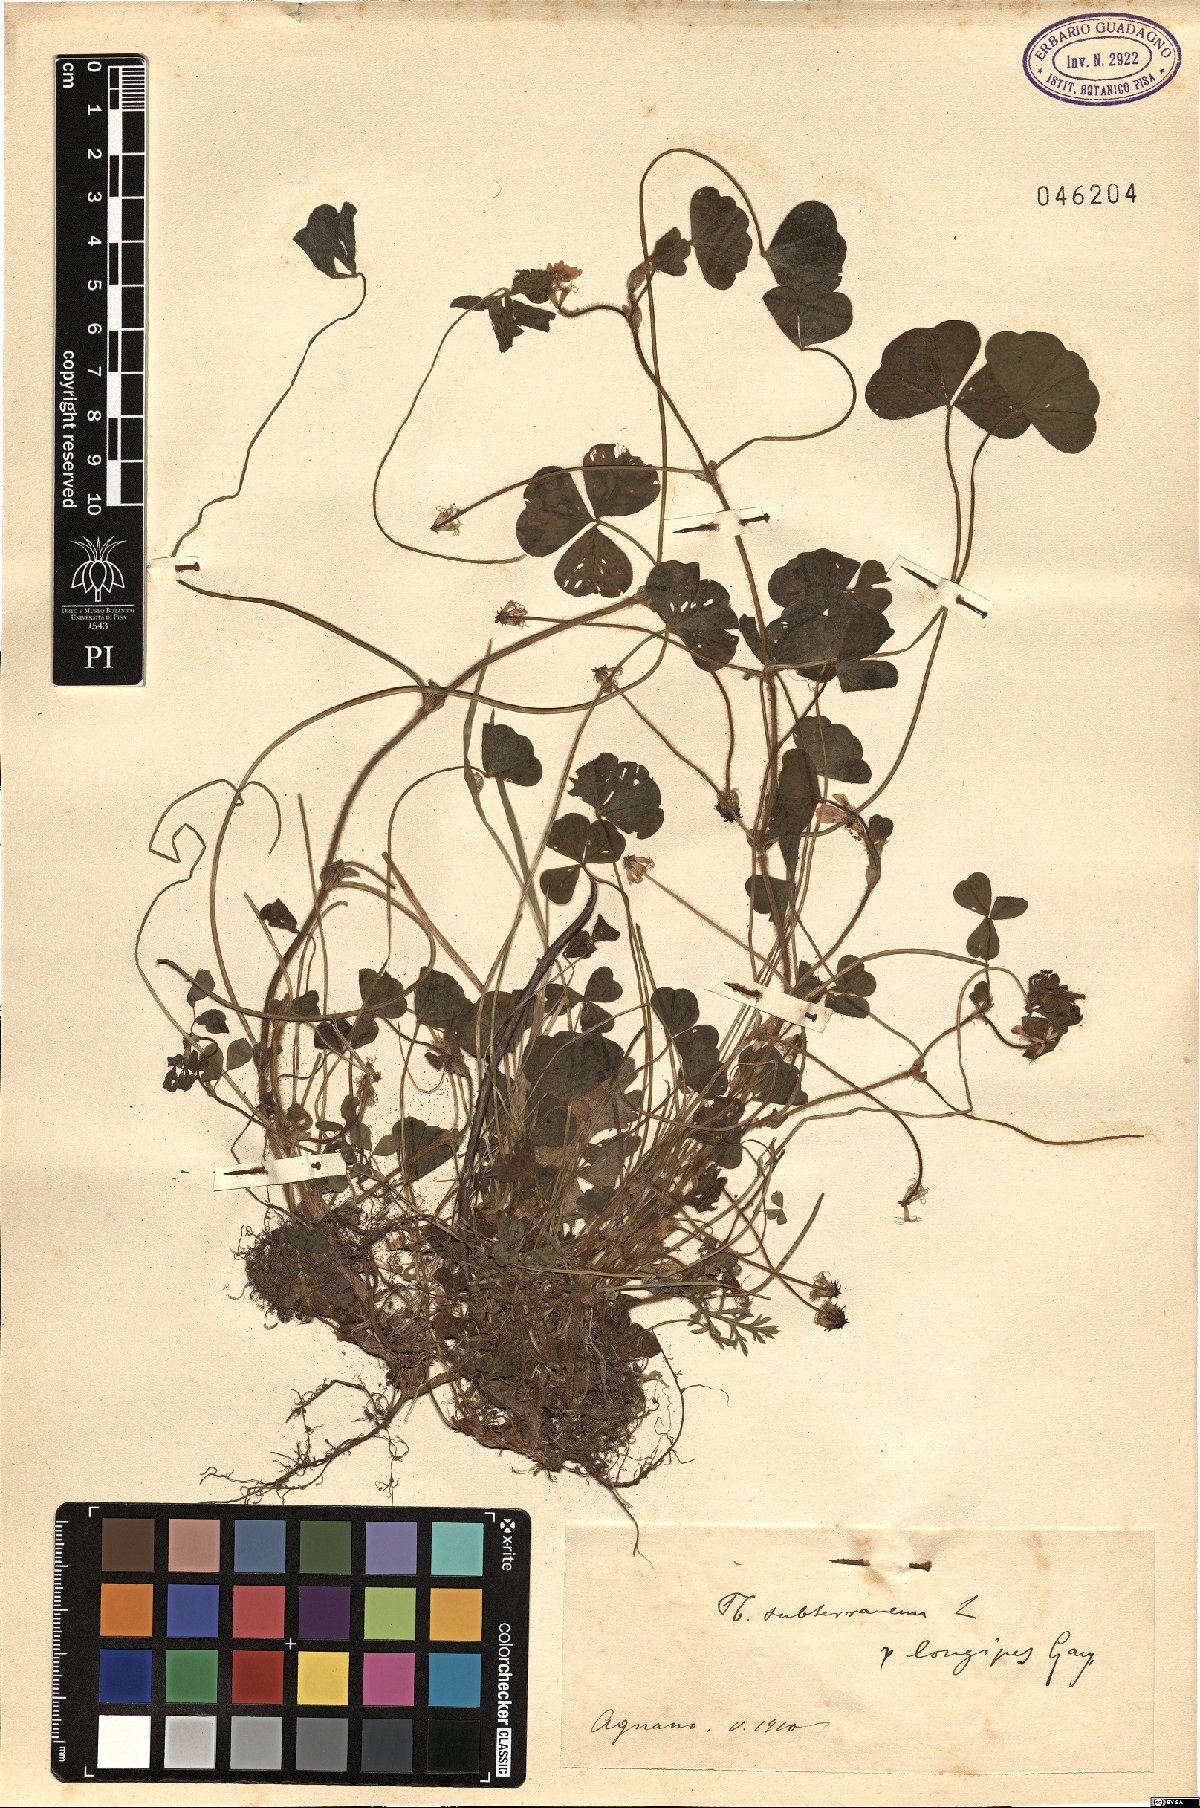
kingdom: Plantae
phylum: Tracheophyta
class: Magnoliopsida
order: Fabales
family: Fabaceae
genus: Trifolium
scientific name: Trifolium subterraneum
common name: Subterranean clover
